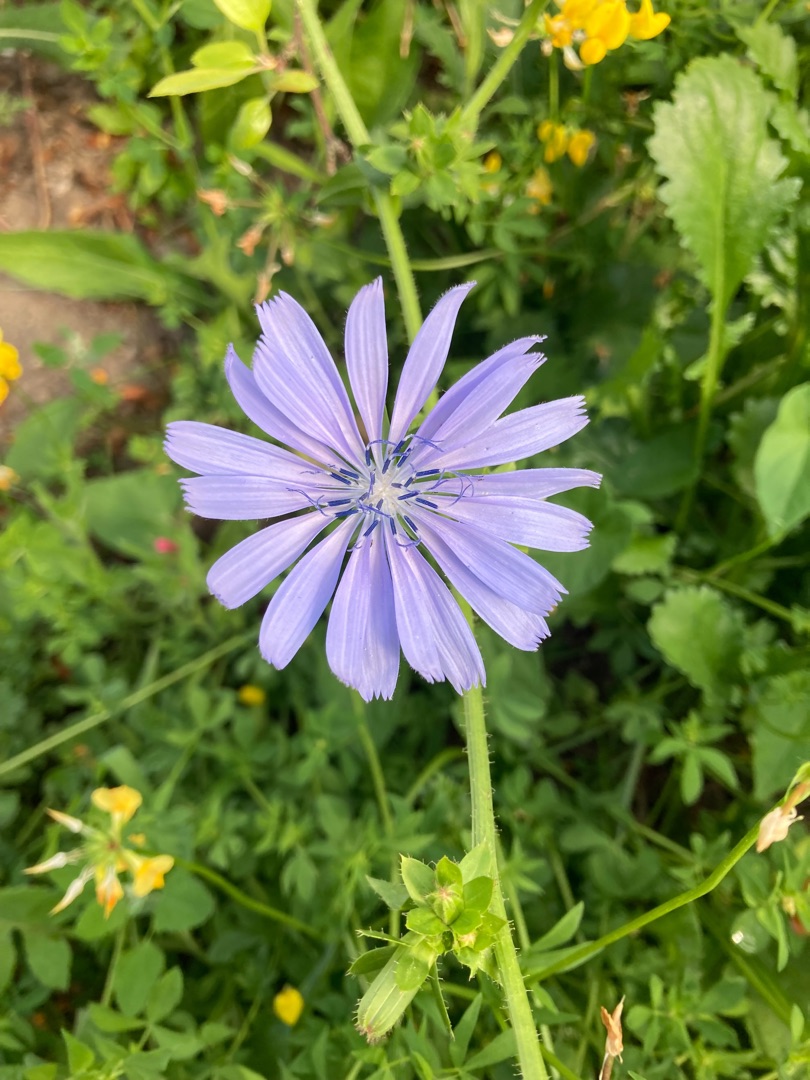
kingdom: Plantae
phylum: Tracheophyta
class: Magnoliopsida
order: Asterales
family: Asteraceae
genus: Cichorium
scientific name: Cichorium intybus
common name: Cikorie
